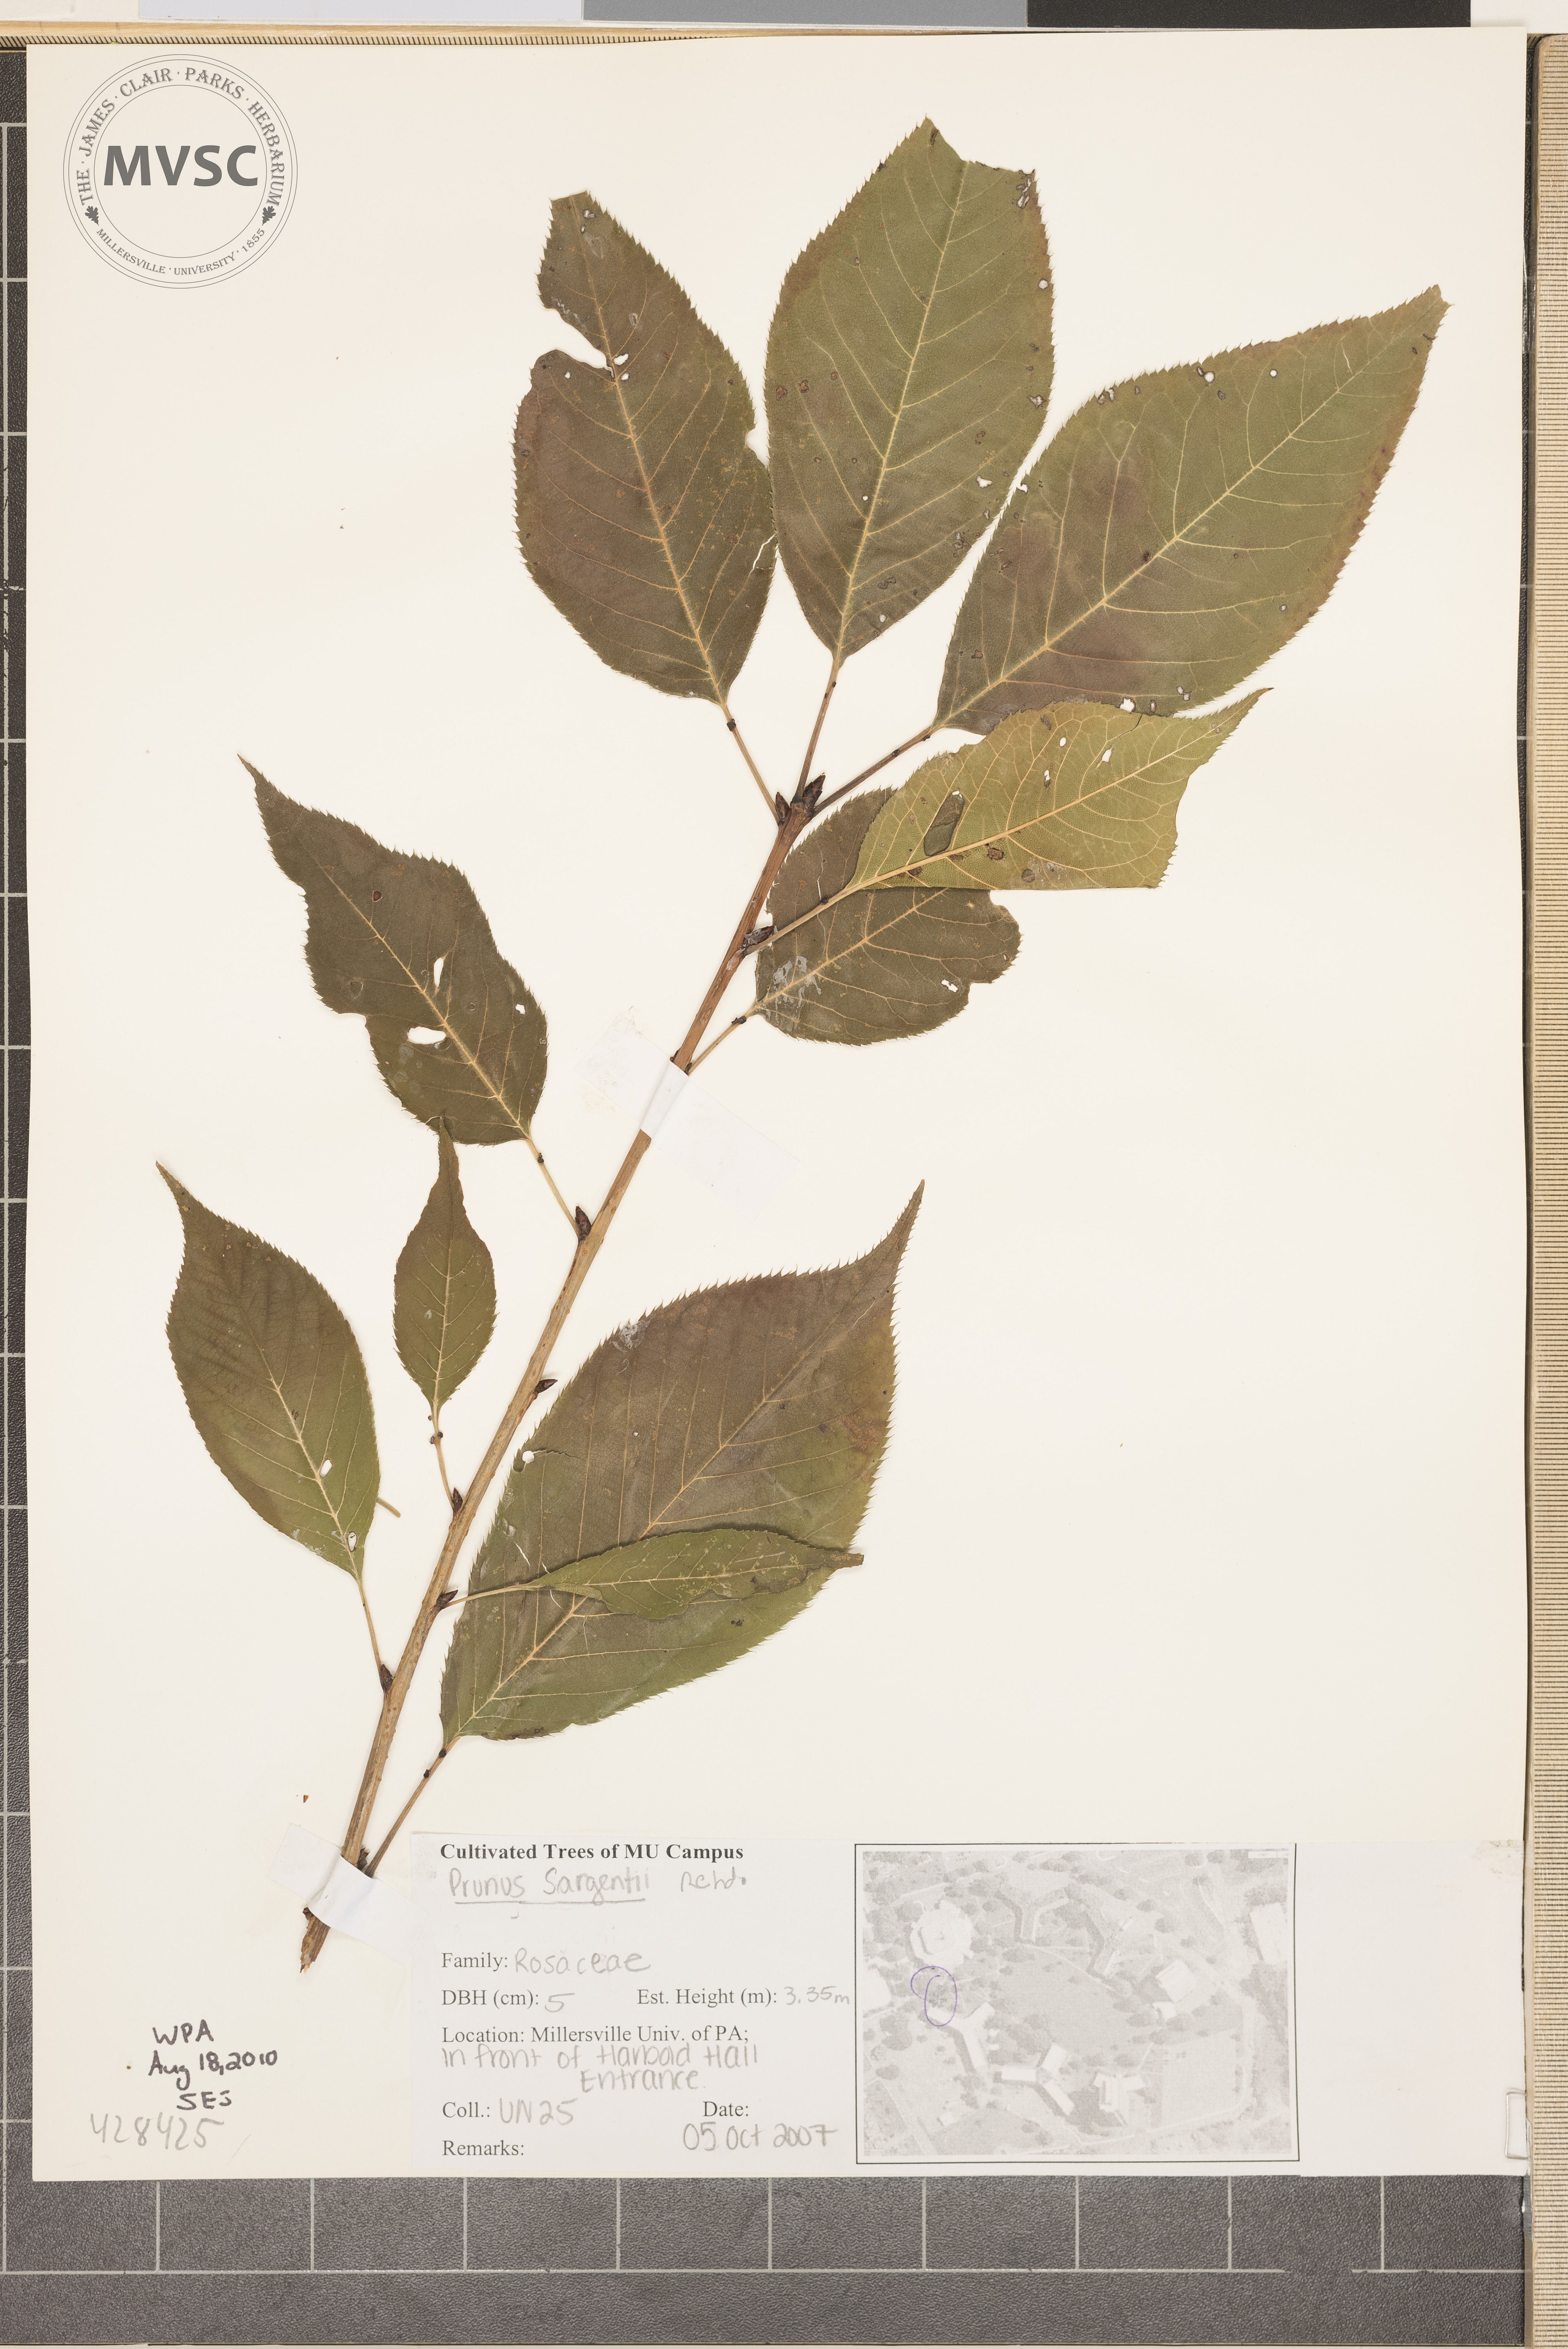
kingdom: Plantae
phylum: Tracheophyta
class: Magnoliopsida
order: Rosales
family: Rosaceae
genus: Prunus
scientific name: Prunus sargentii
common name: Sargent's Cherry
